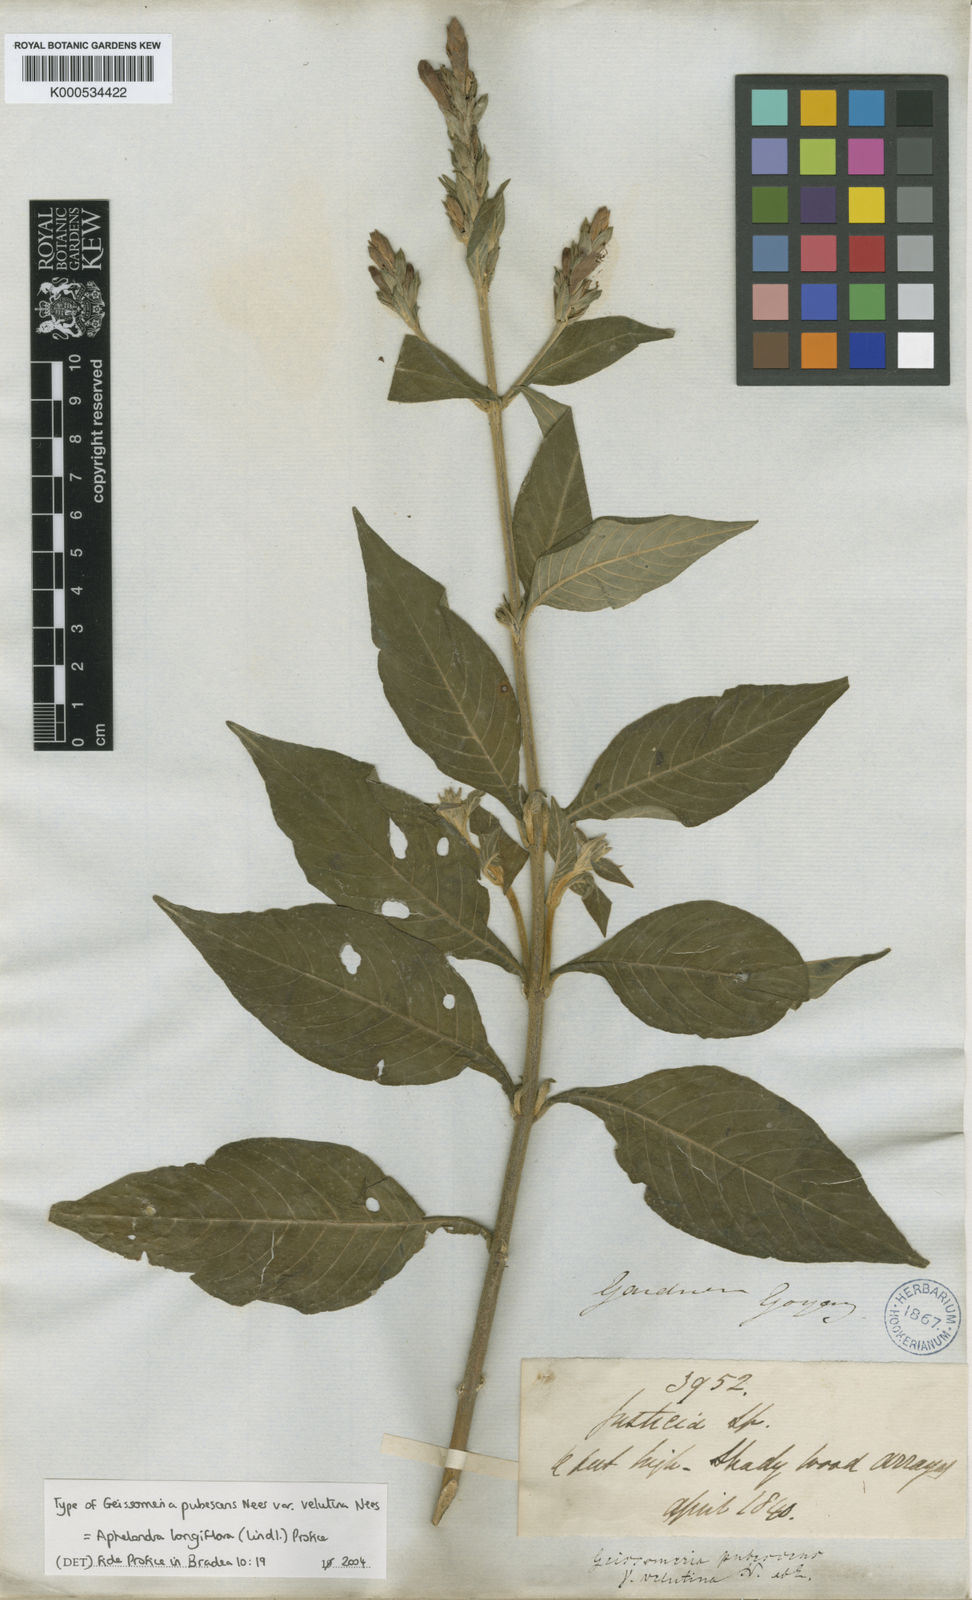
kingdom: Plantae
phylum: Tracheophyta
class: Magnoliopsida
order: Lamiales
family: Acanthaceae
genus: Aphelandra
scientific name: Aphelandra longiflora
